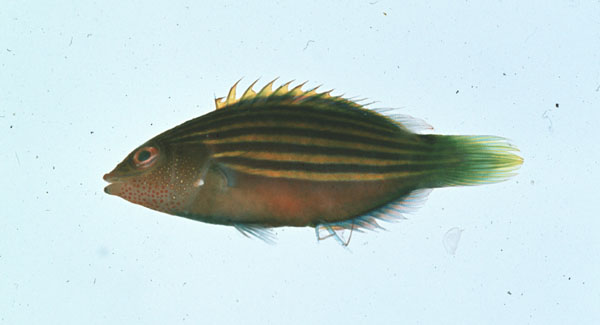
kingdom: Animalia
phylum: Chordata
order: Perciformes
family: Labridae
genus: Pseudocheilinus
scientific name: Pseudocheilinus hexataenia
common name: Sixline wrasse
